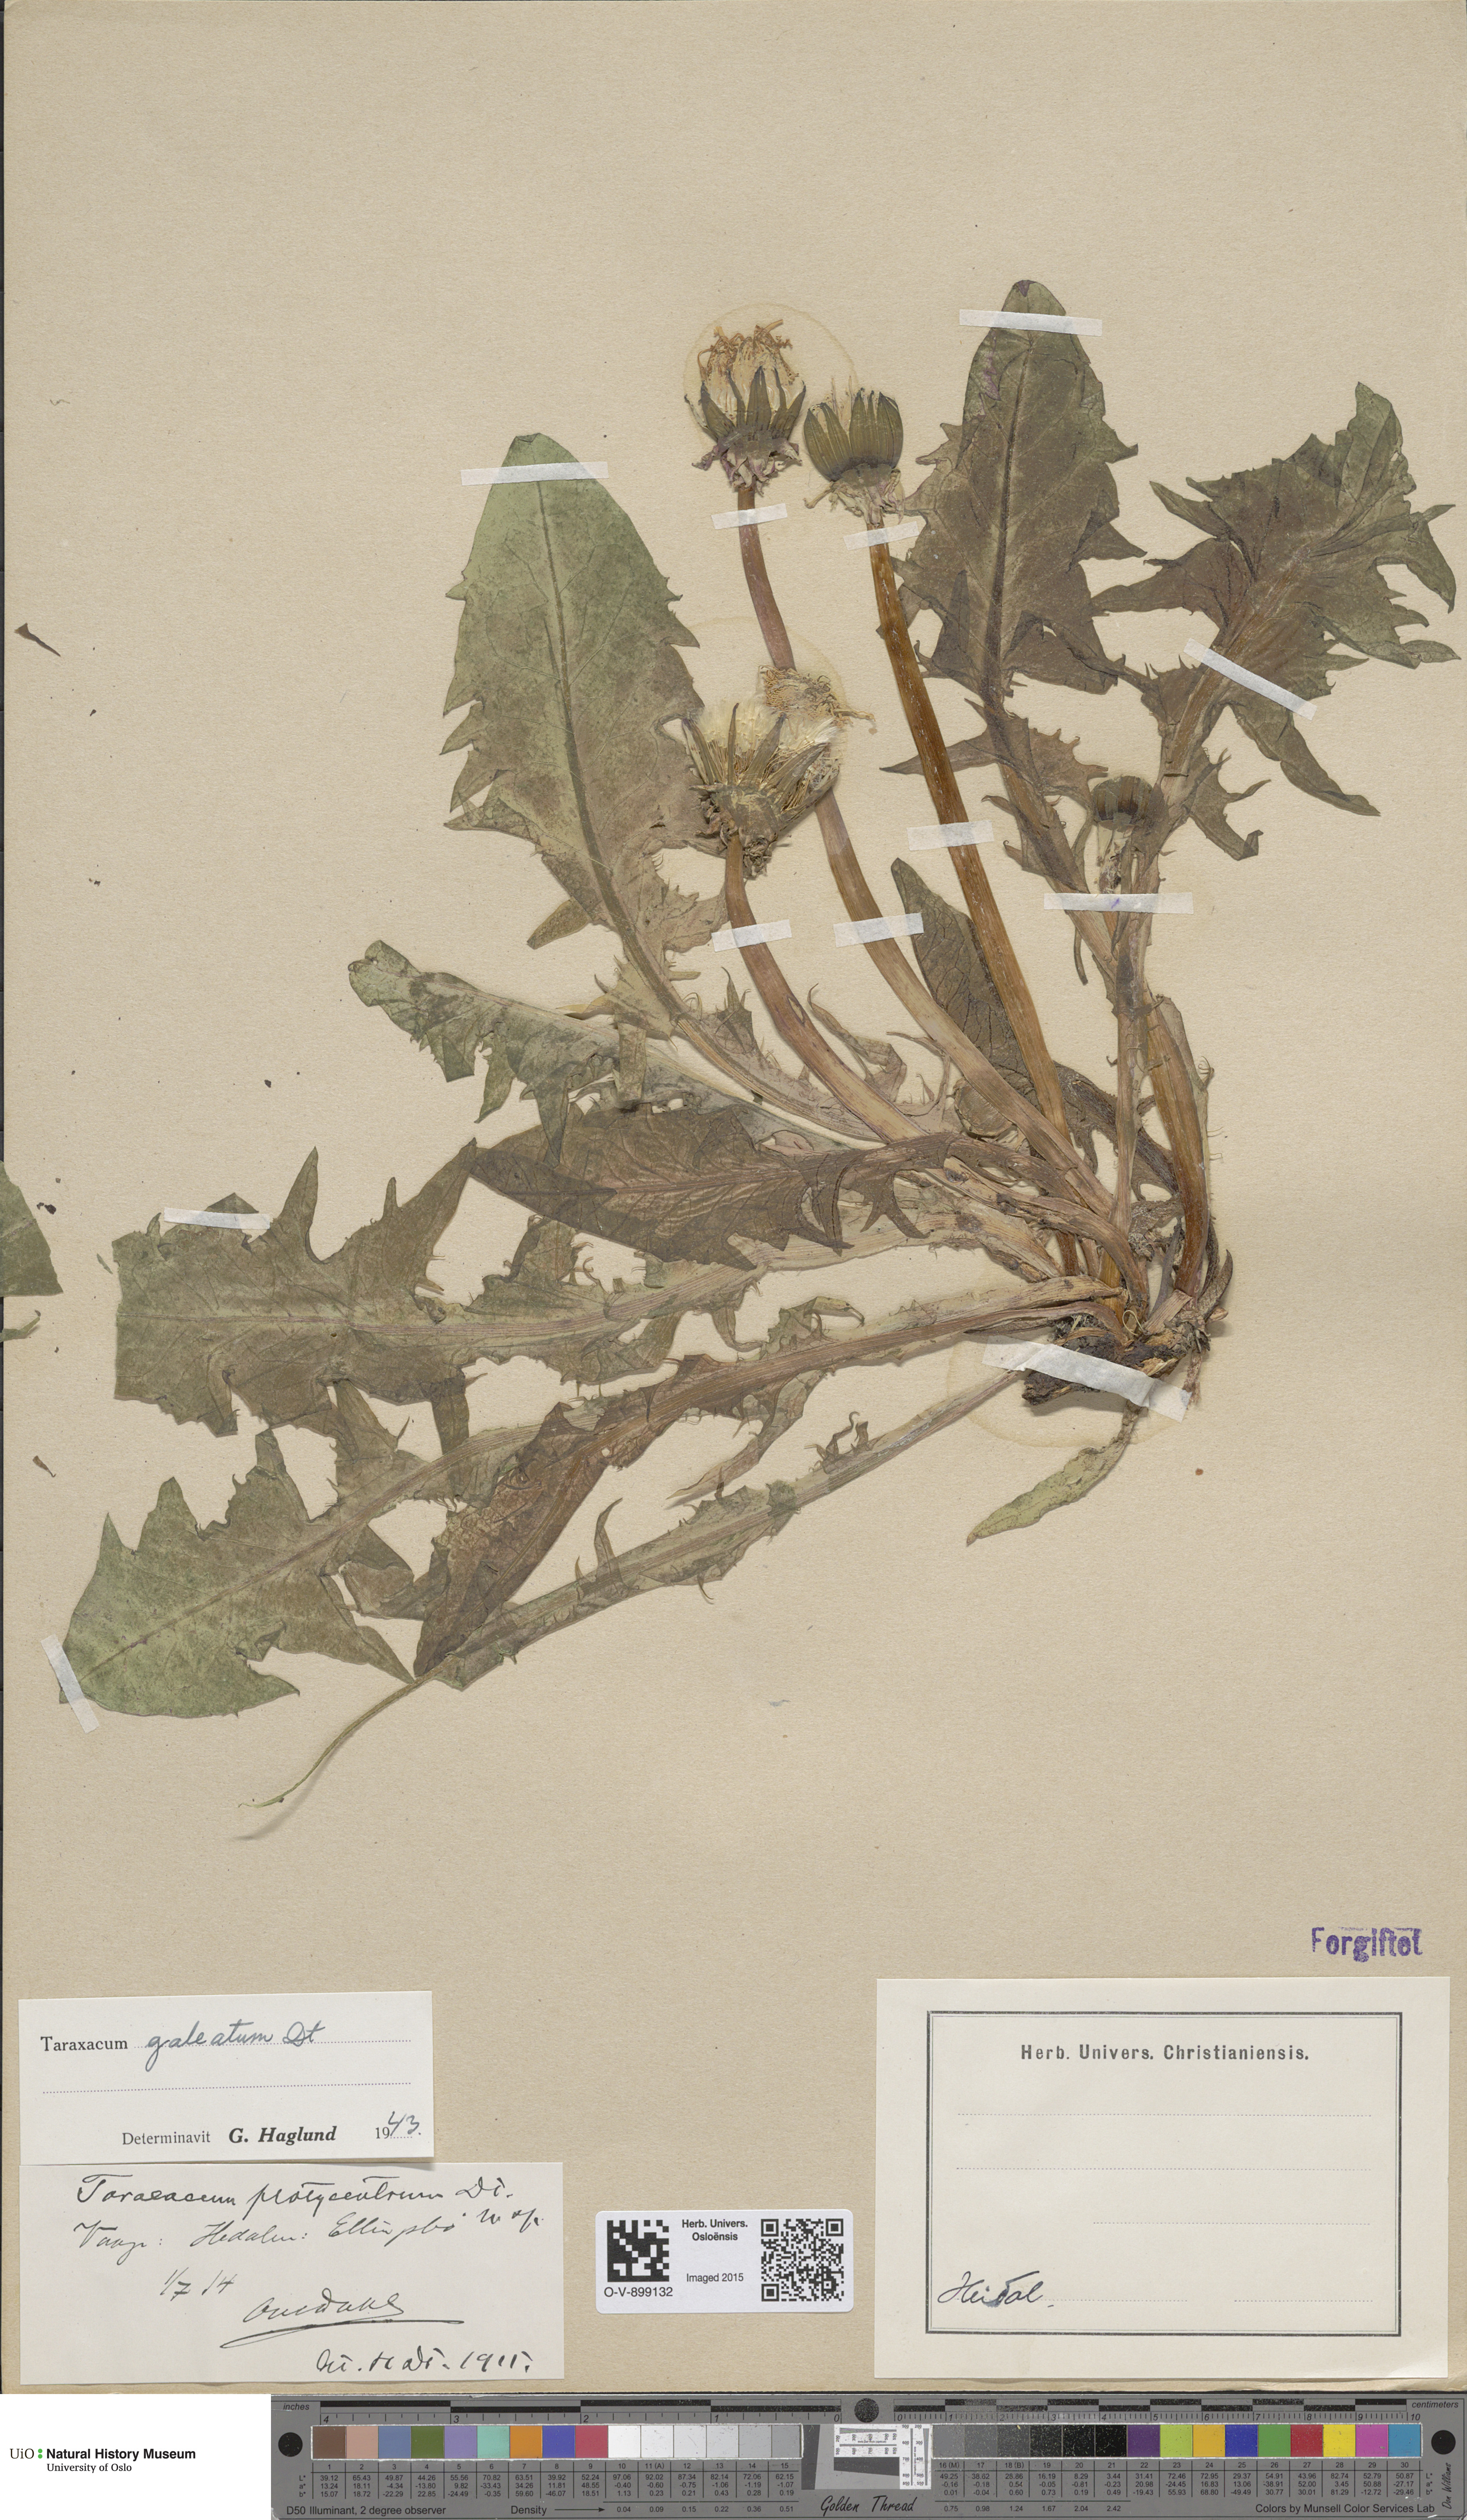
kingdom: Plantae
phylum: Tracheophyta
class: Magnoliopsida
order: Asterales
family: Asteraceae
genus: Taraxacum
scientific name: Taraxacum galeatum
